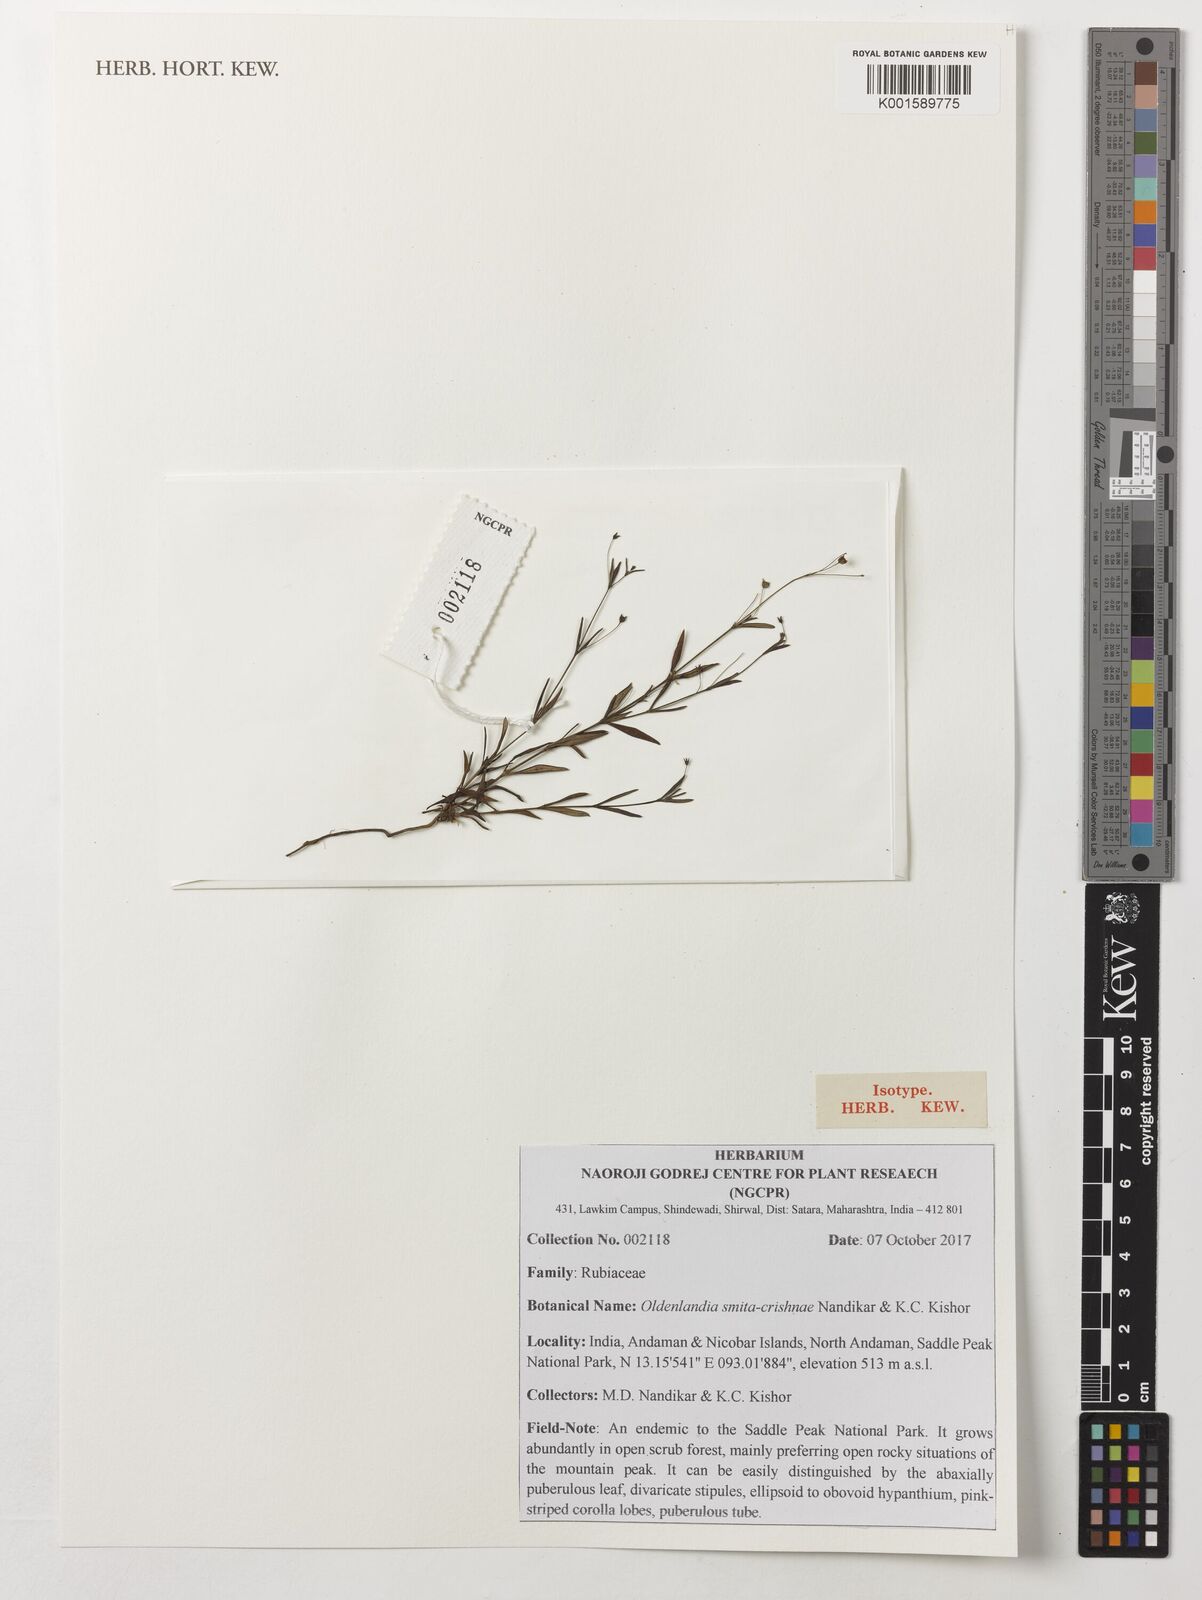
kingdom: Plantae
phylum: Tracheophyta
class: Magnoliopsida
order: Gentianales
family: Rubiaceae
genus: Oldenlandia
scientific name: Oldenlandia smitacrishnae
